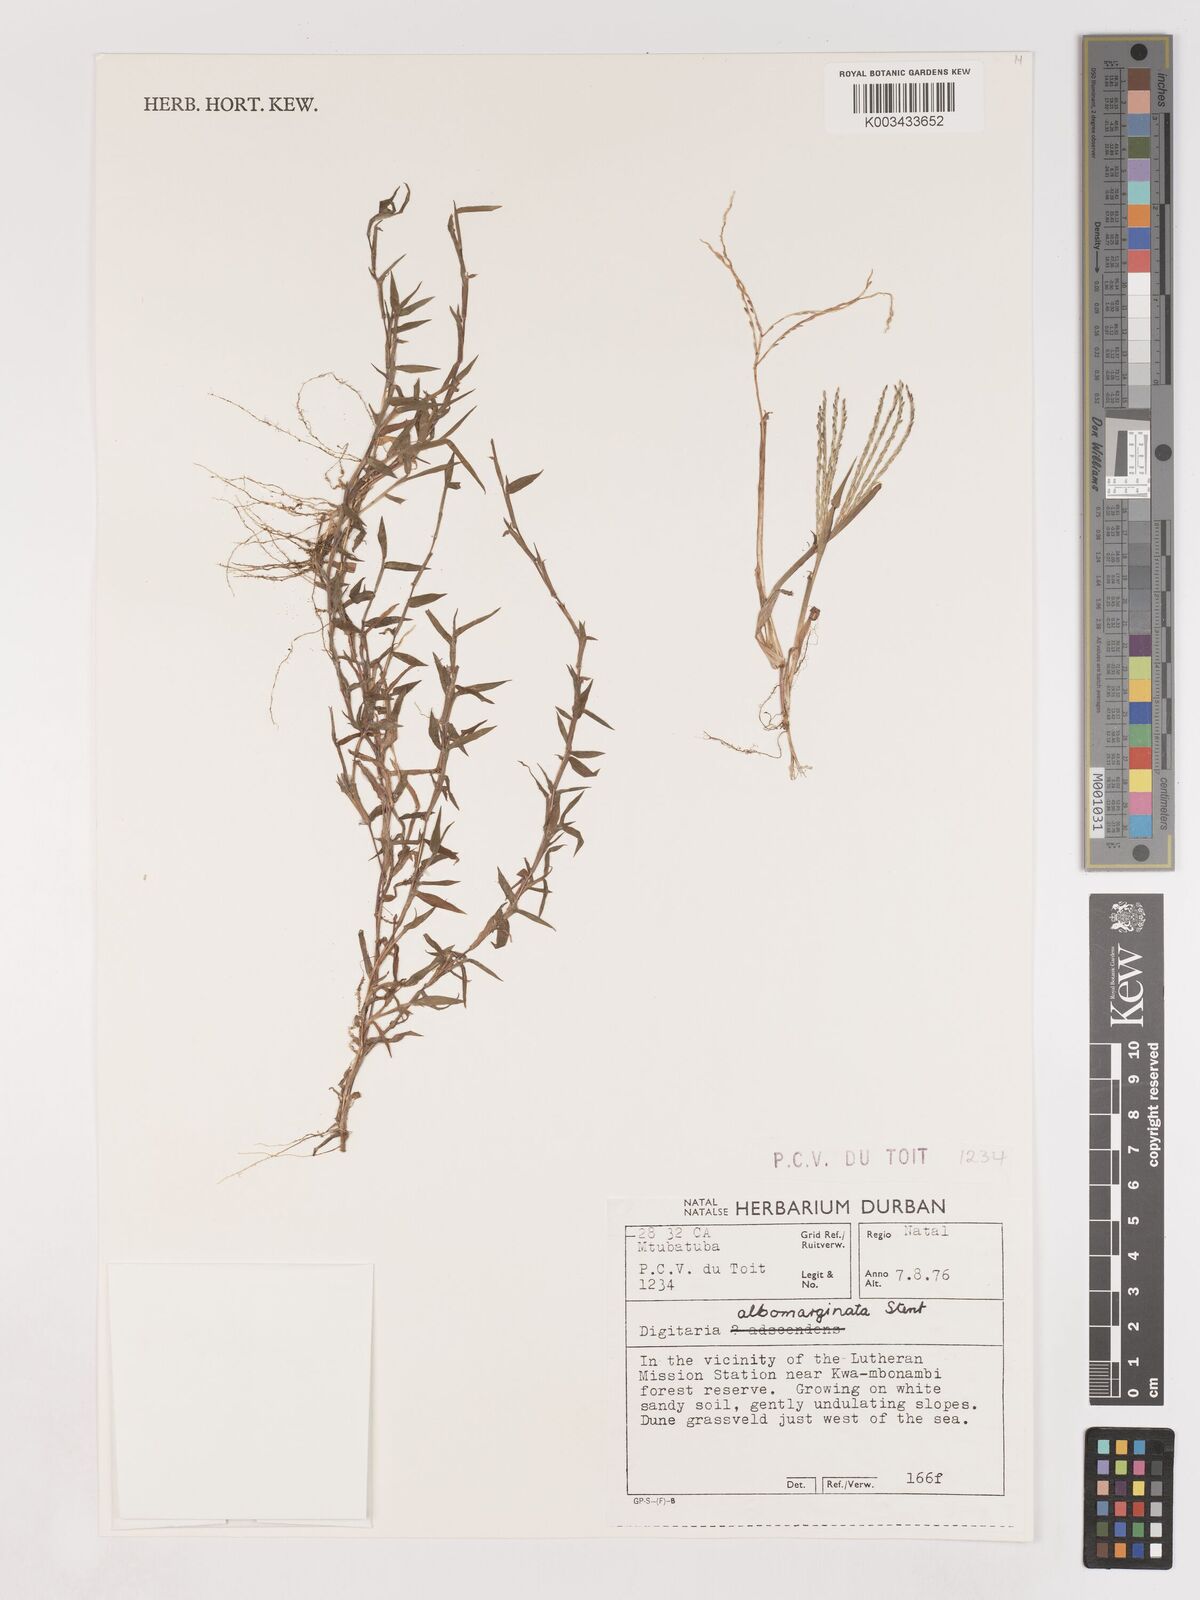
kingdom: Plantae
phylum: Tracheophyta
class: Liliopsida
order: Poales
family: Poaceae
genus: Digitaria
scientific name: Digitaria diversinervis
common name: Richmond finger grass
